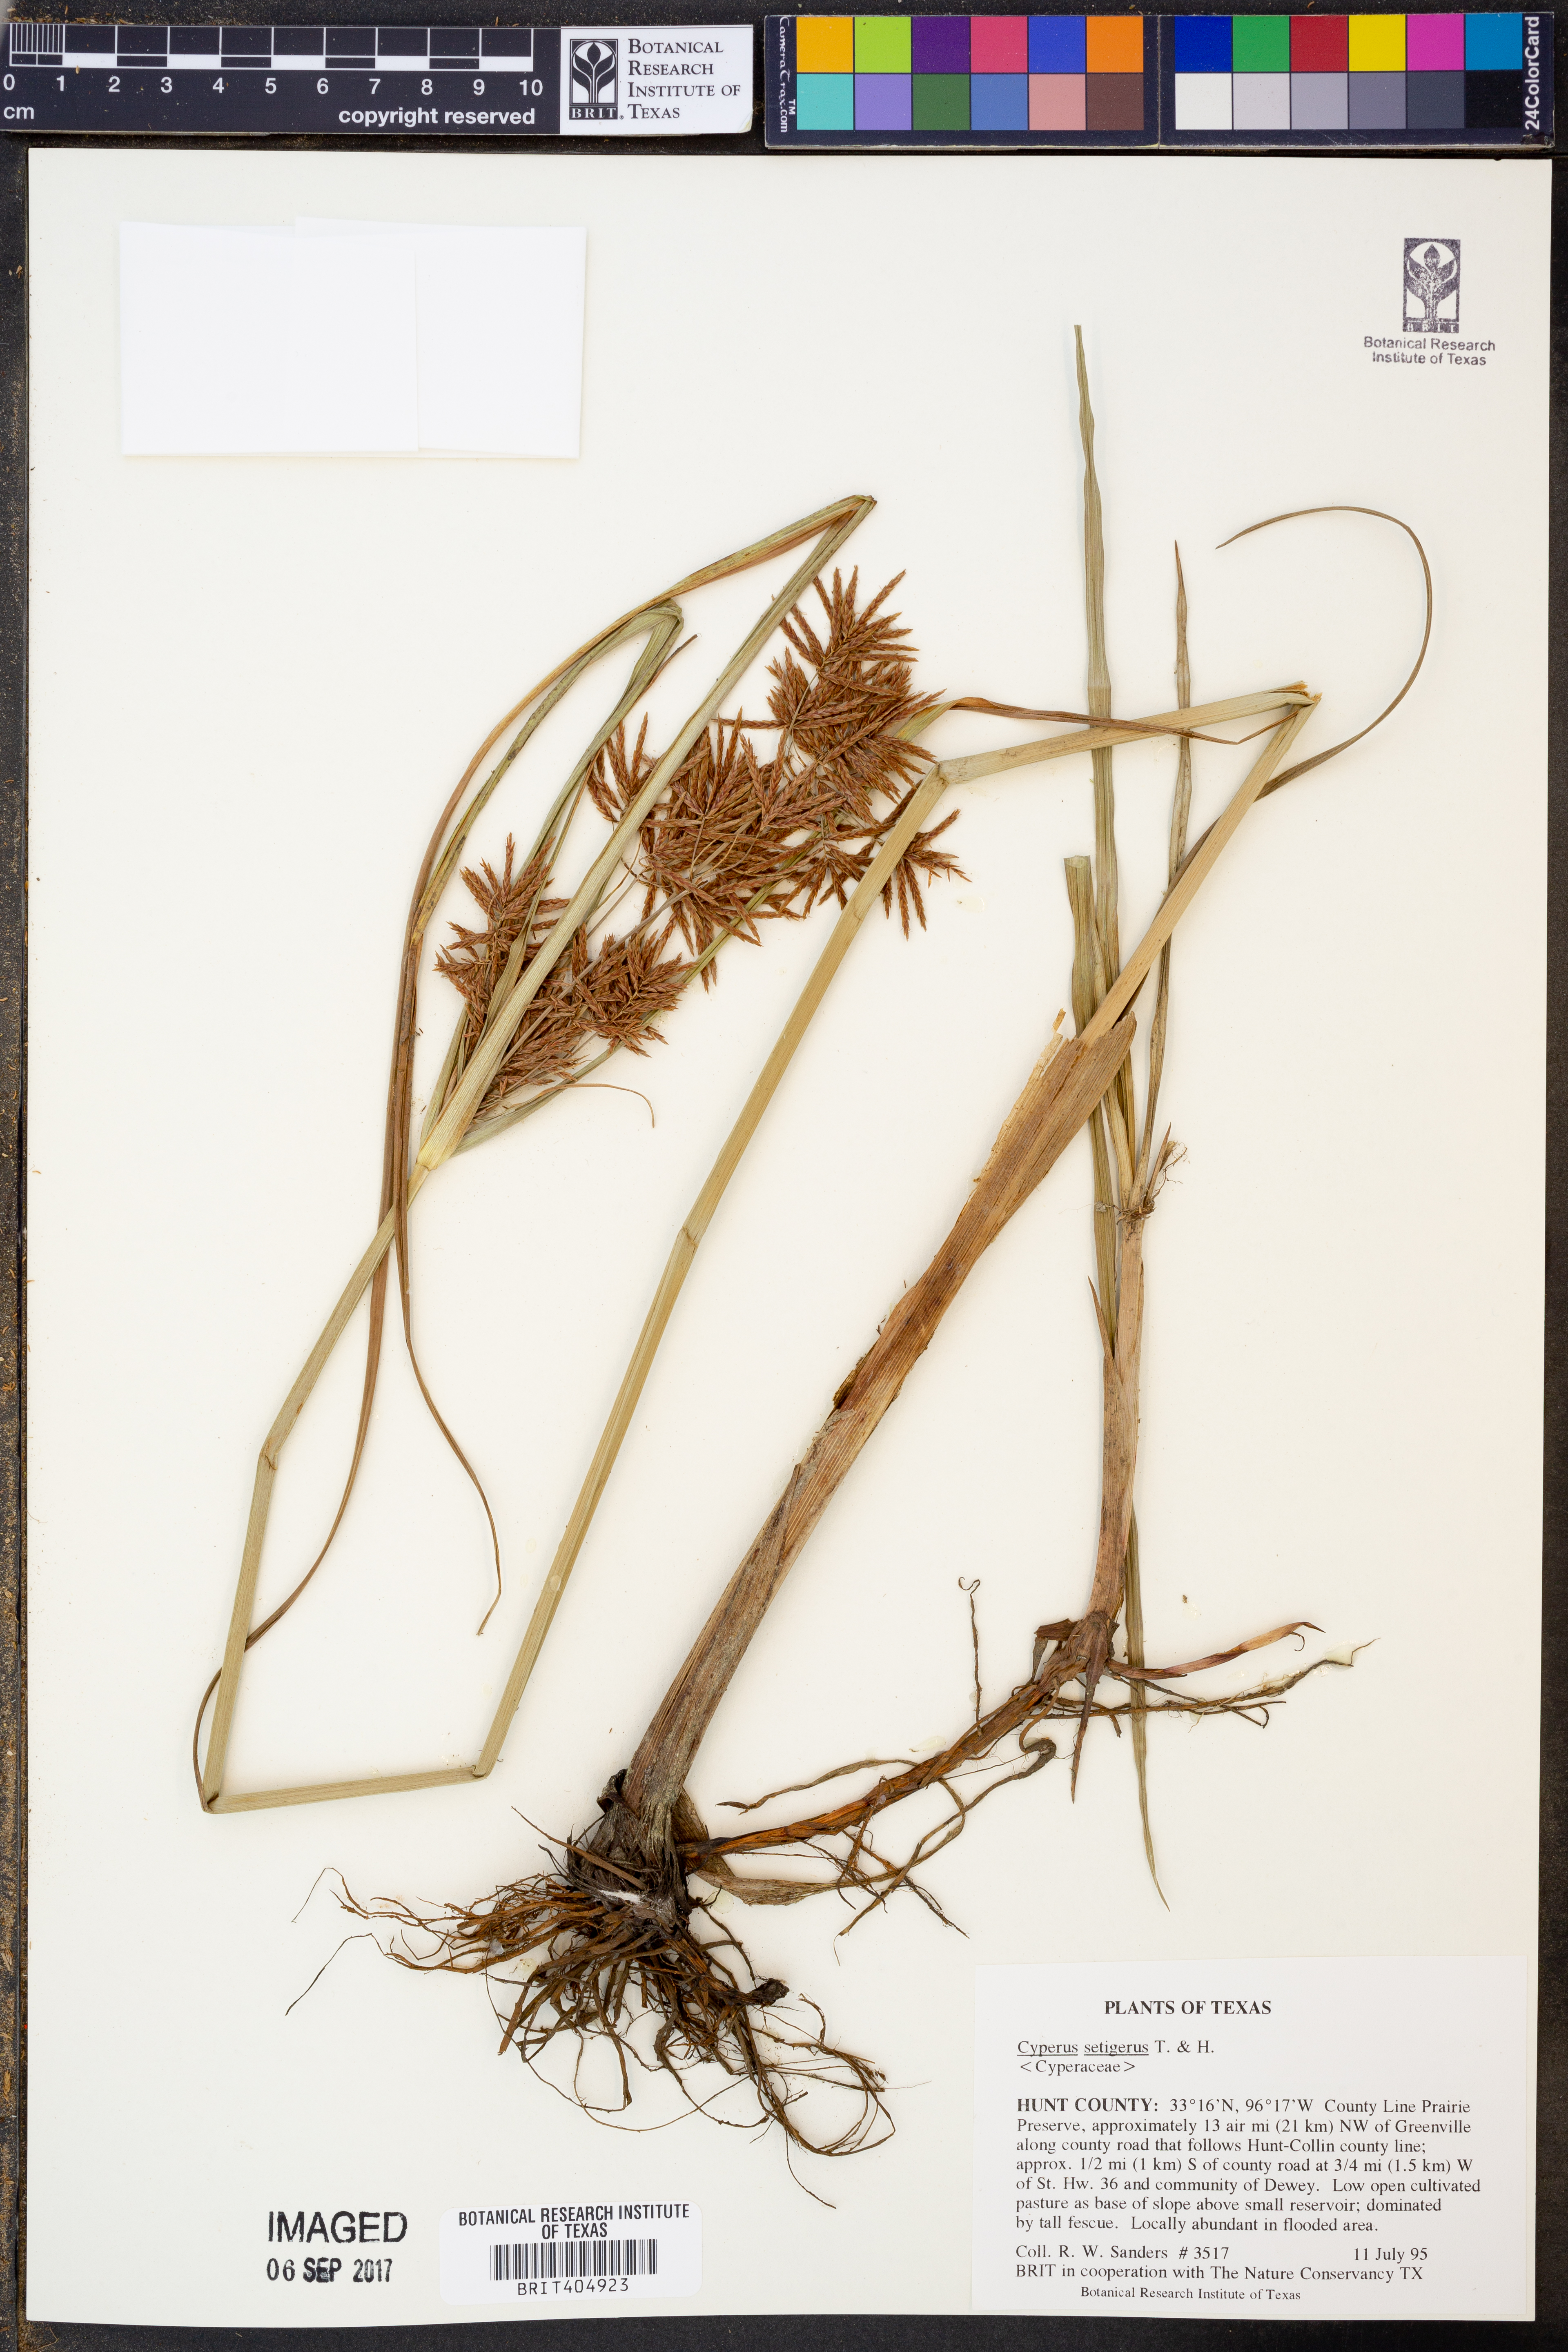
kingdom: Plantae
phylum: Tracheophyta
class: Liliopsida
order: Poales
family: Cyperaceae
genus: Cyperus
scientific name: Cyperus setigerus
